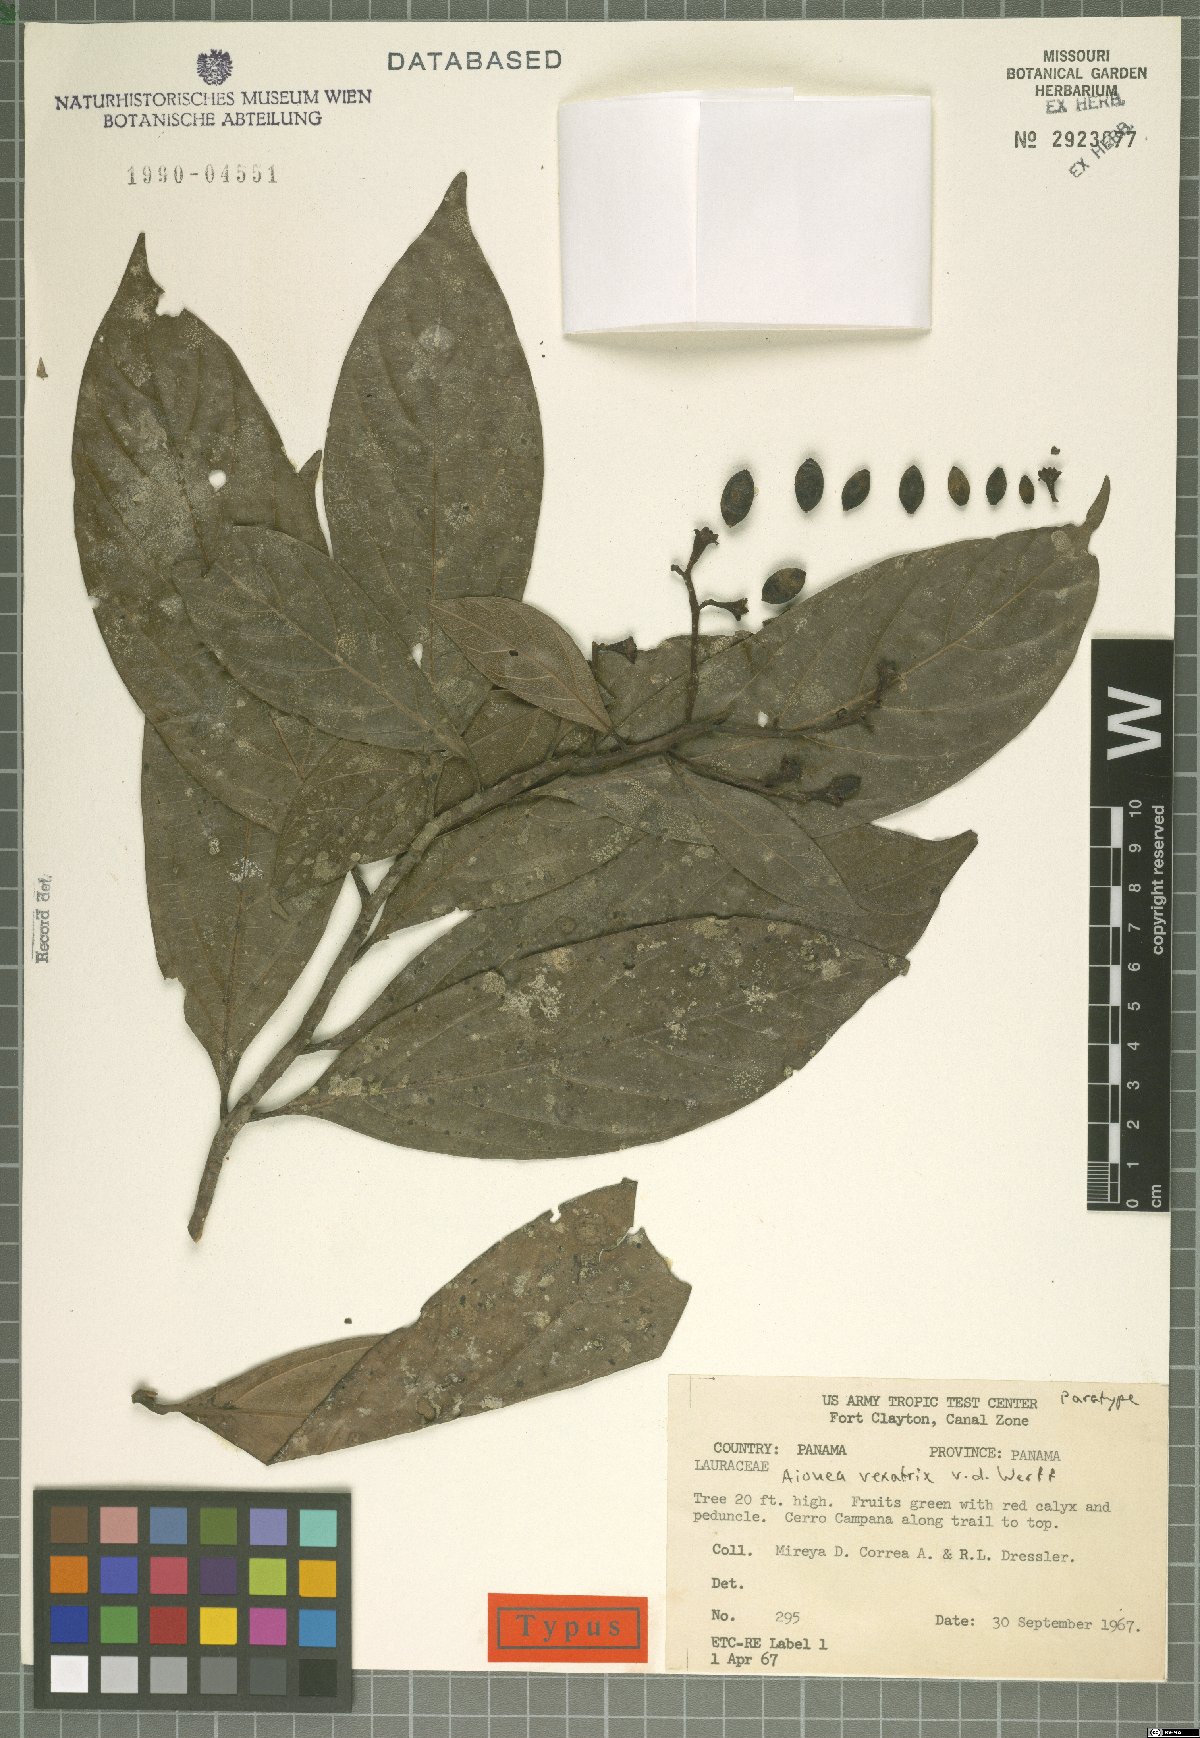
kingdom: Plantae
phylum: Tracheophyta
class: Magnoliopsida
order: Laurales
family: Lauraceae
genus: Ocotea
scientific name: Ocotea insularis
